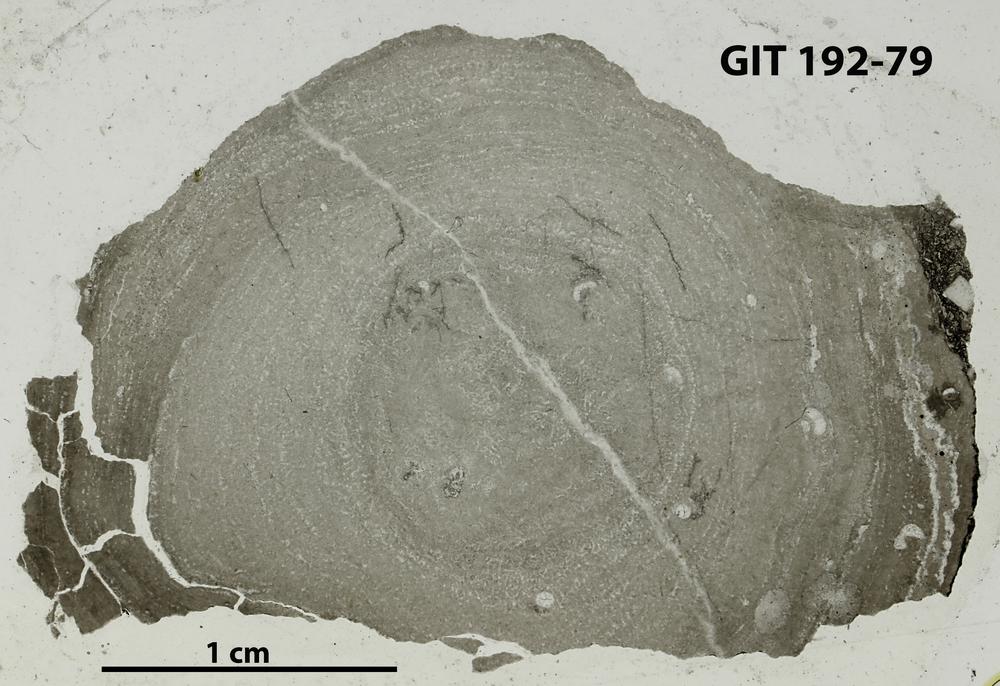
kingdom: Animalia
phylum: Porifera
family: Pseudolabechiidae
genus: Desmostroma
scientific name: Desmostroma
